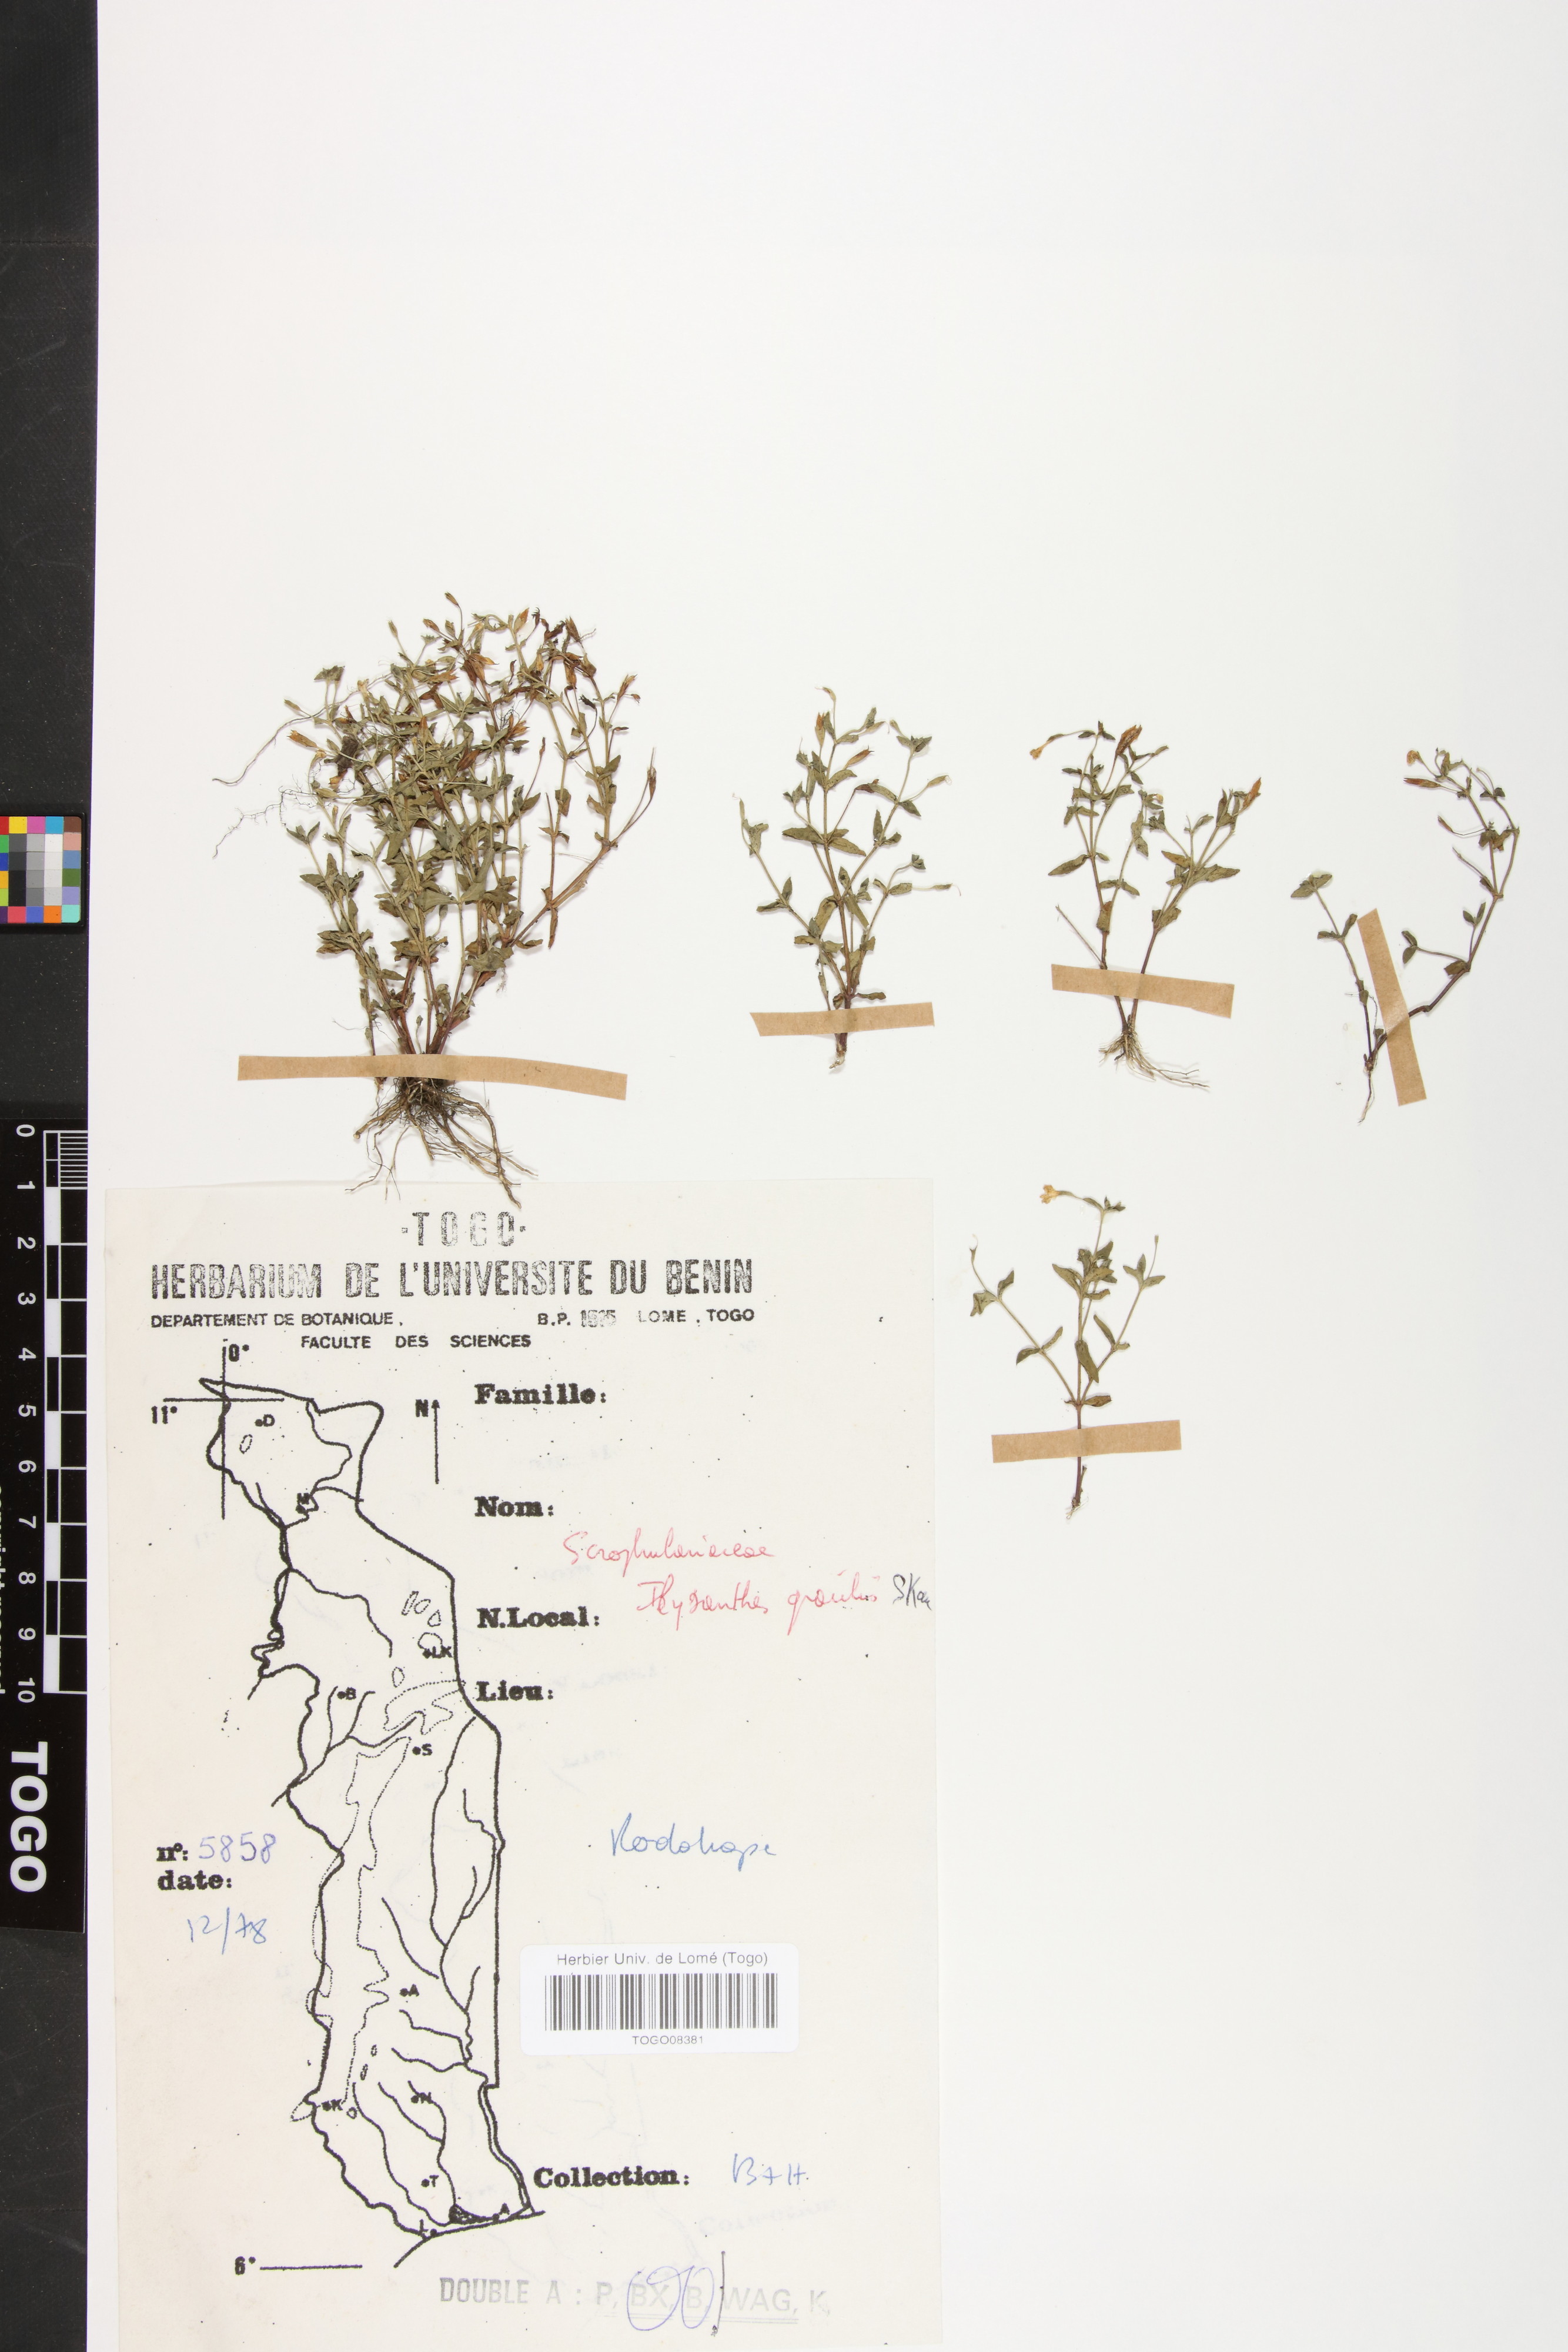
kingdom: Plantae
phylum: Tracheophyta
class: Magnoliopsida
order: Lamiales
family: Linderniaceae
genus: Linderniella
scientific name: Linderniella gracilis
